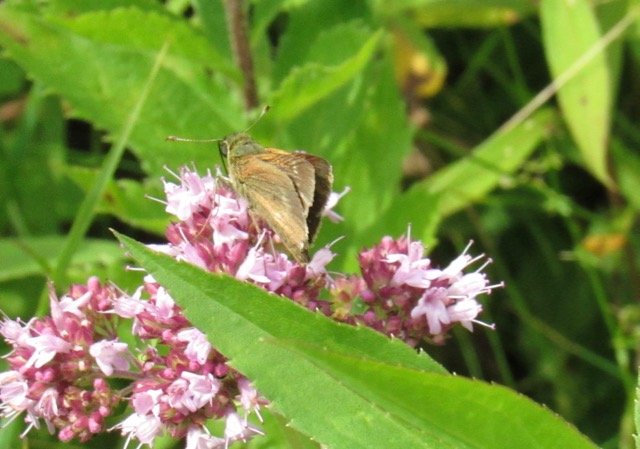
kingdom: Animalia
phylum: Arthropoda
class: Insecta
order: Lepidoptera
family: Hesperiidae
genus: Polites
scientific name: Polites egeremet
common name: Northern Broken-Dash
